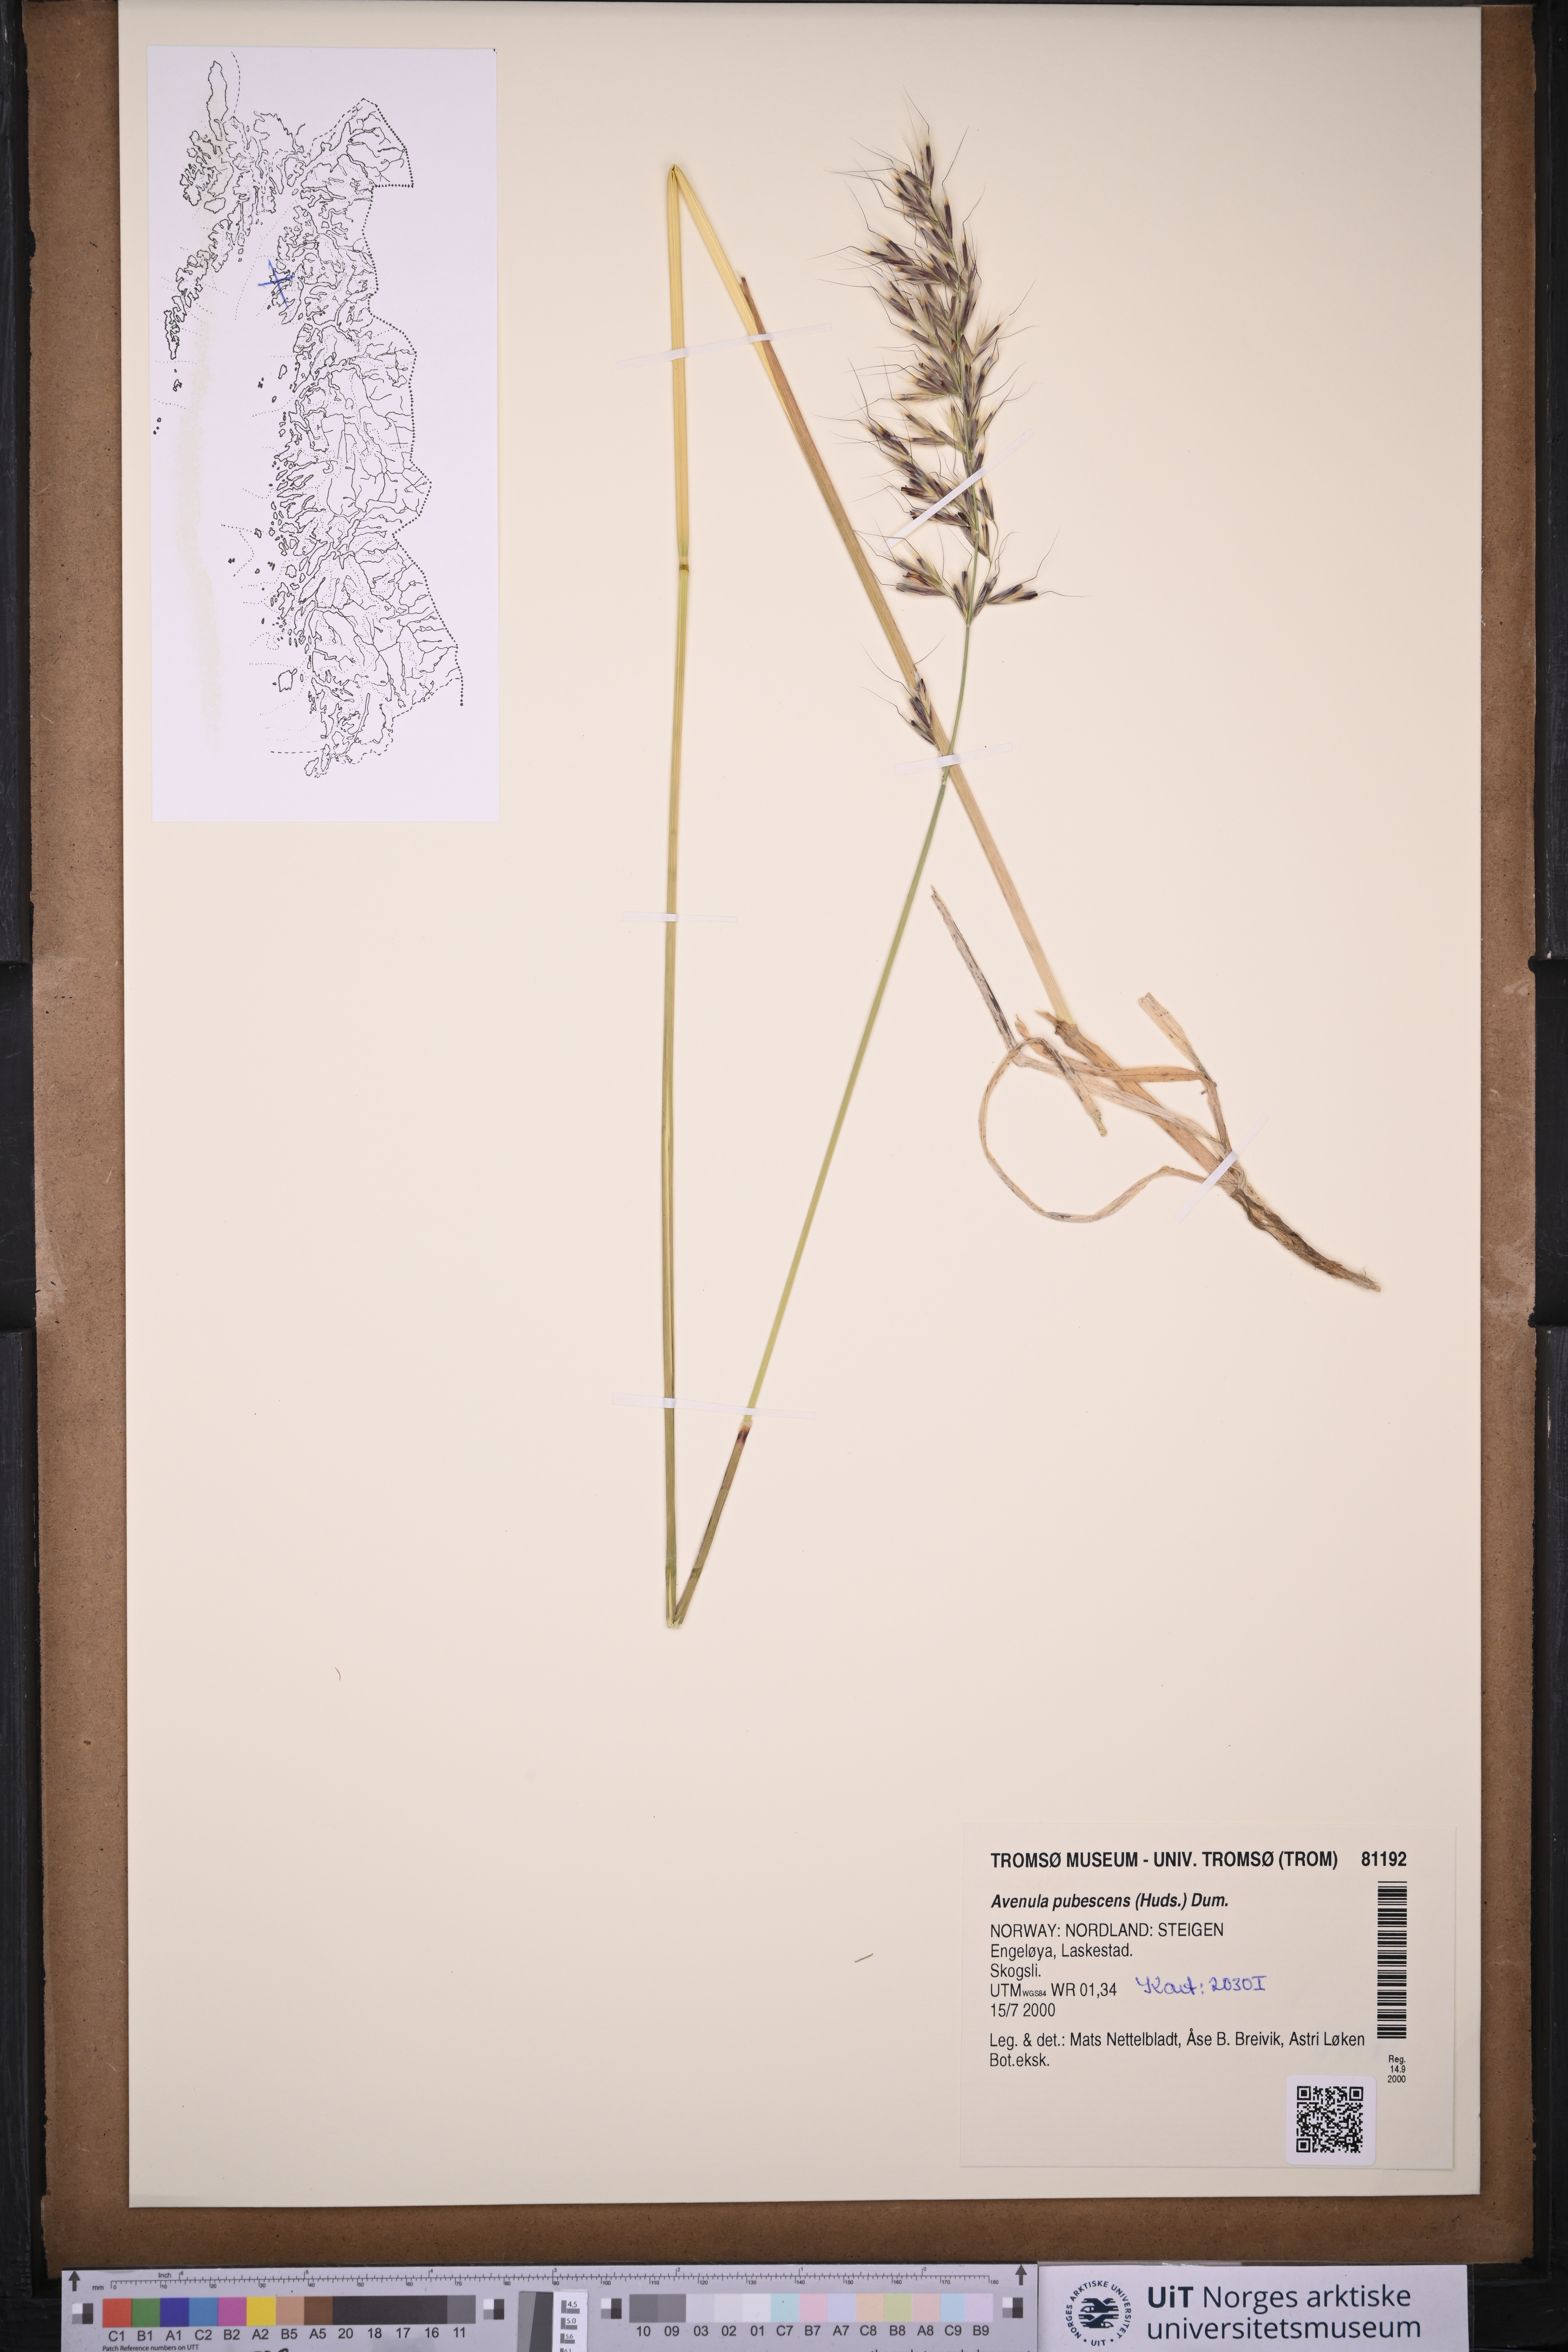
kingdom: Plantae
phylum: Tracheophyta
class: Liliopsida
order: Poales
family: Poaceae
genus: Avenula
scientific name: Avenula pubescens
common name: Downy alpine oatgrass
